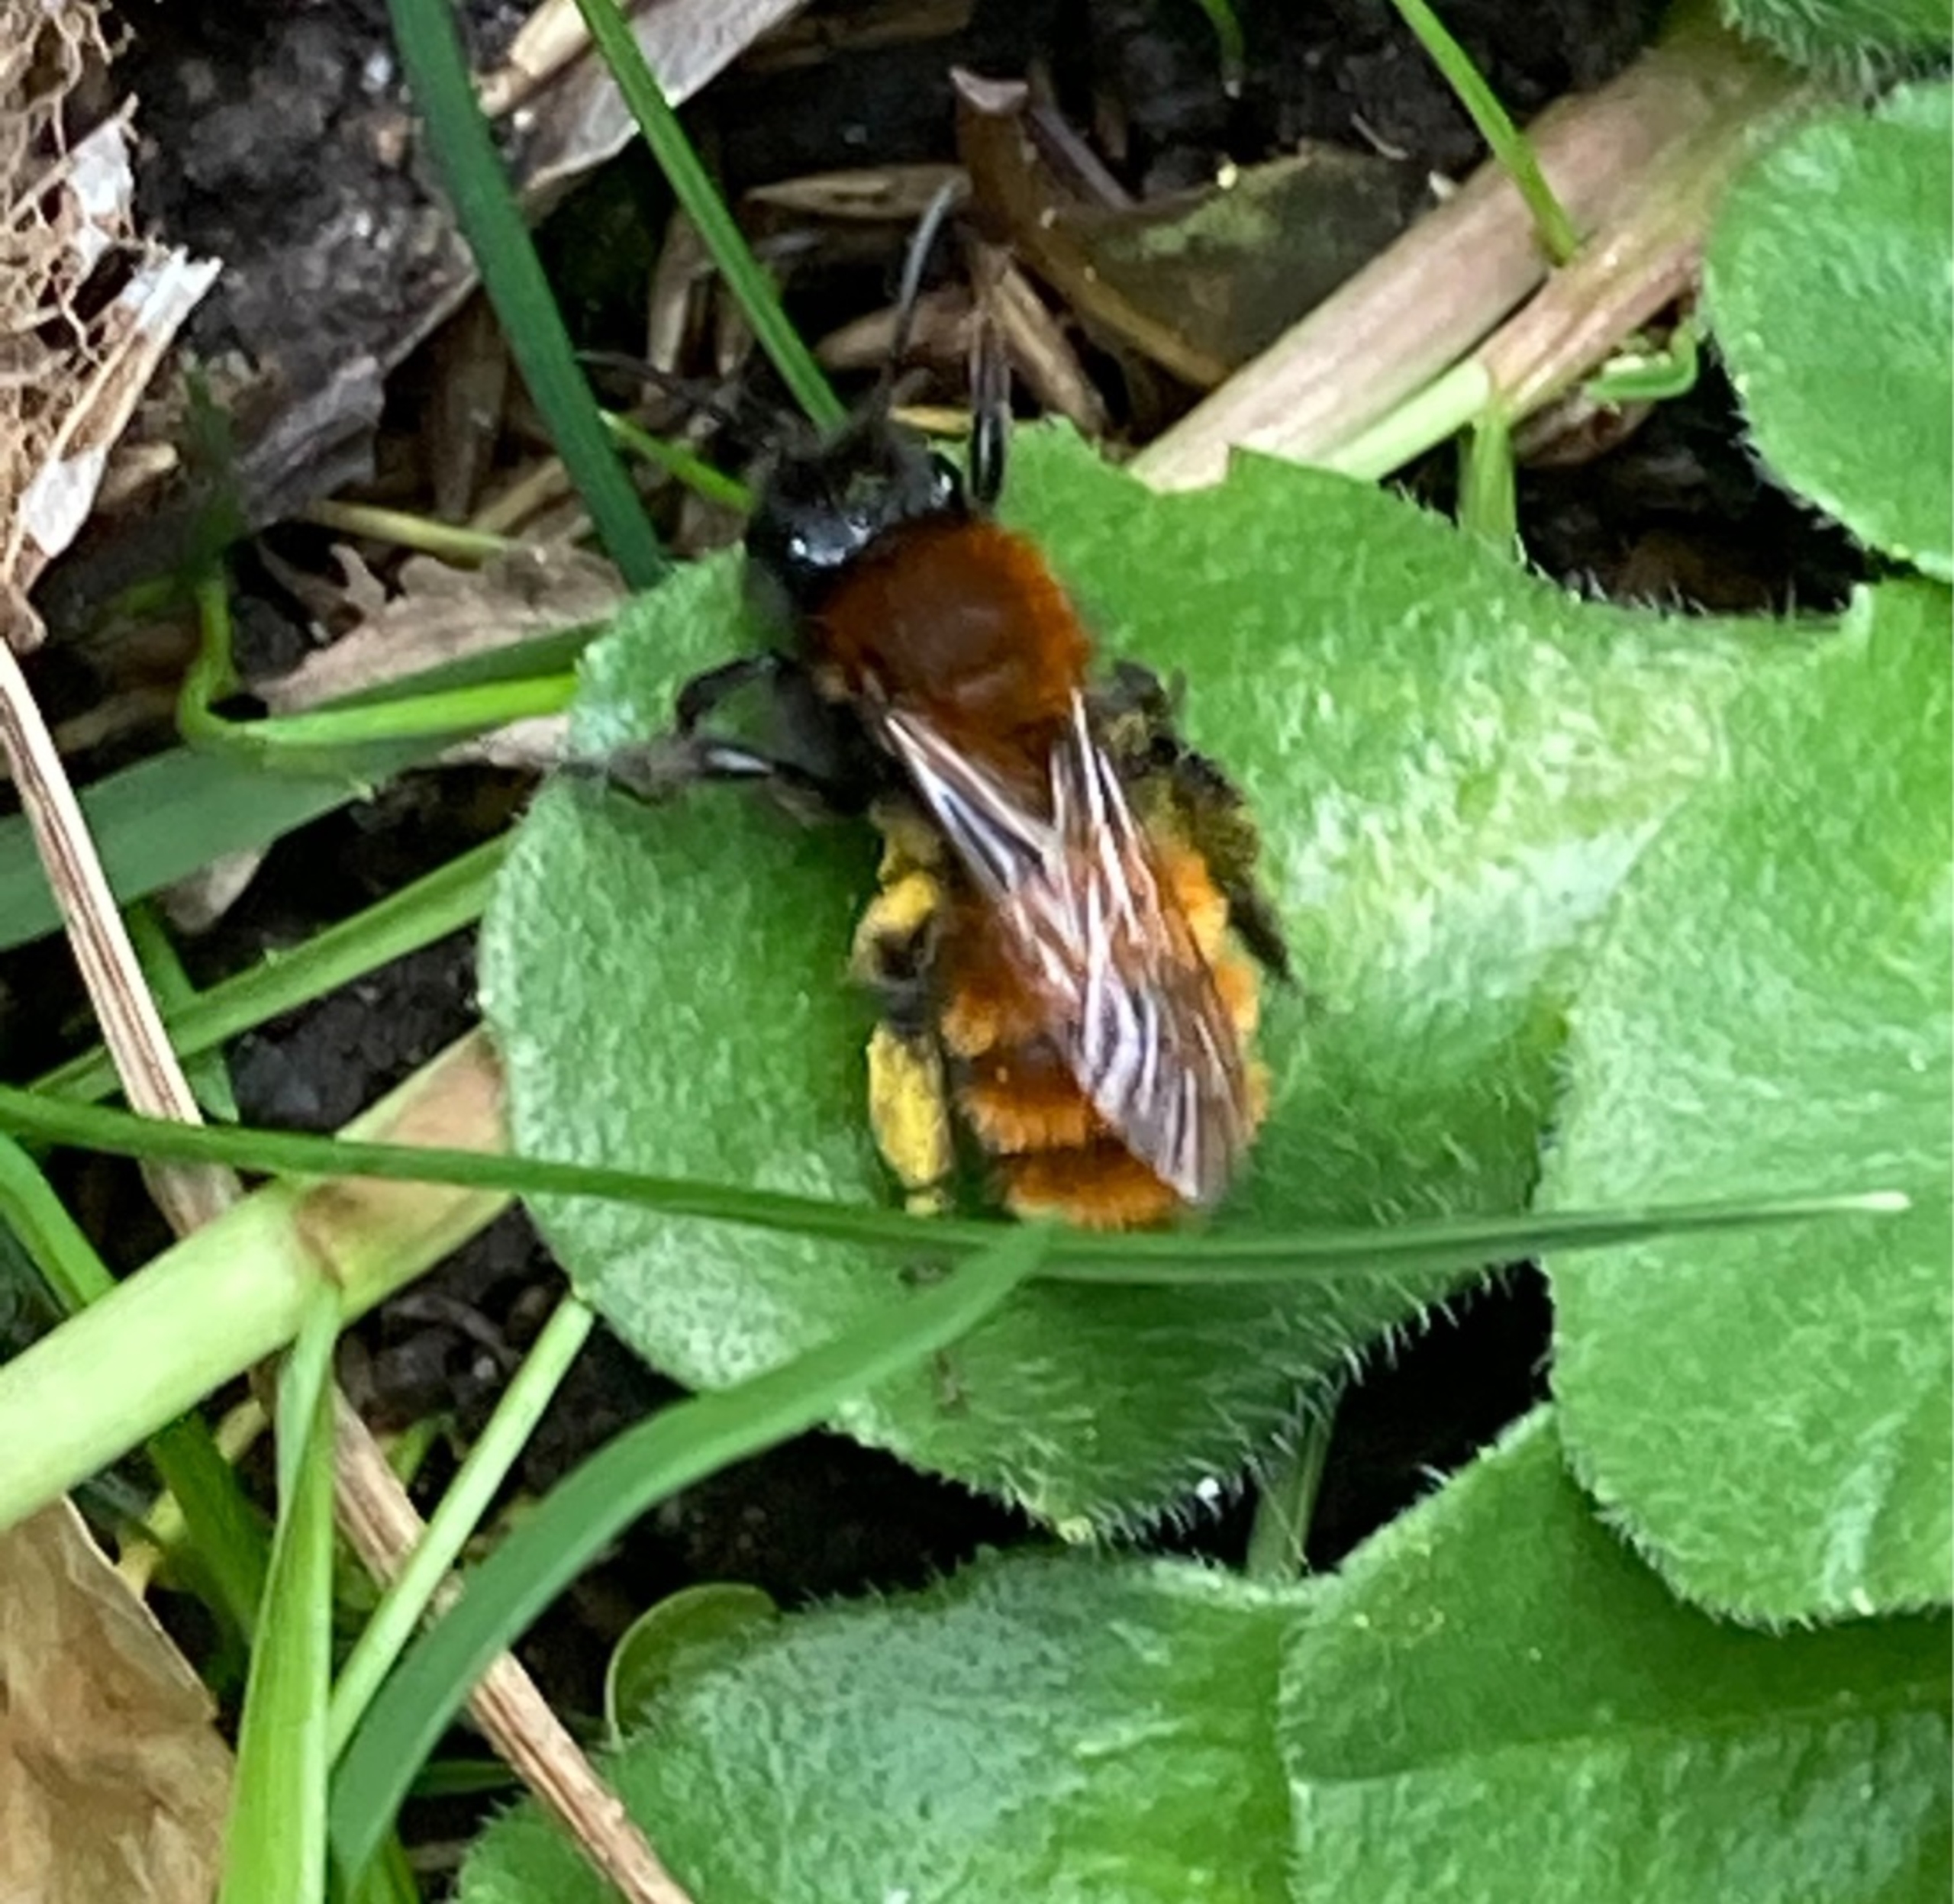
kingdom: Animalia
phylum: Arthropoda
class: Insecta
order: Hymenoptera
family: Andrenidae
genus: Andrena
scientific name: Andrena fulva
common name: Rødpelset jordbi
